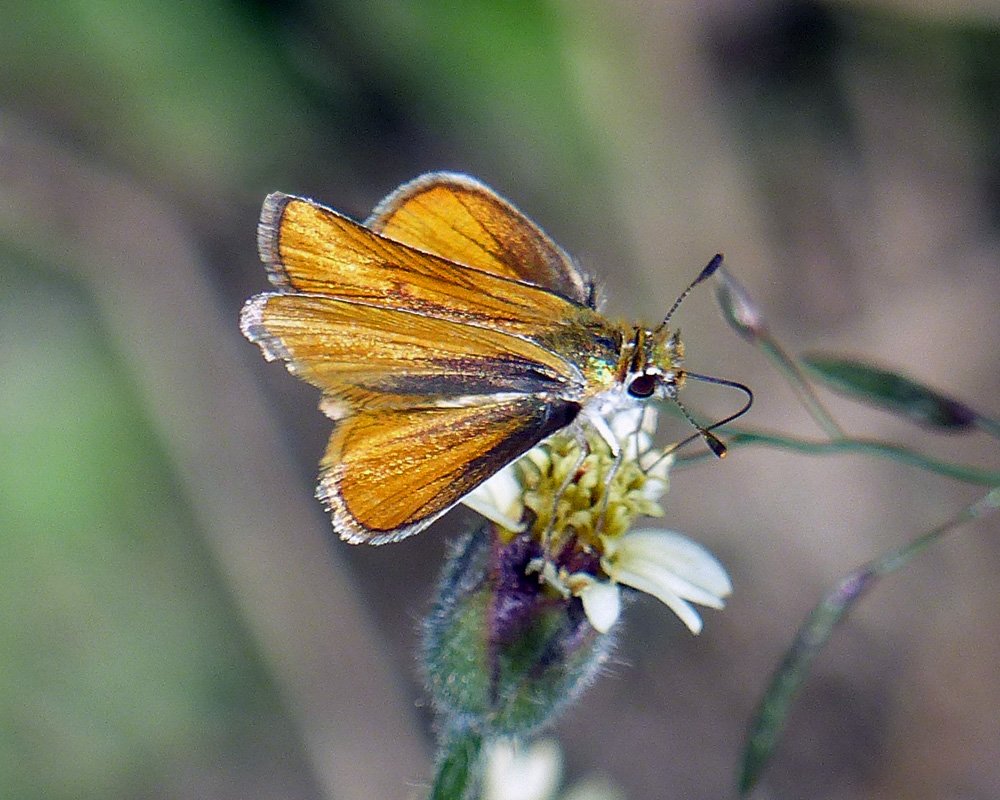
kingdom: Animalia
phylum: Arthropoda
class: Insecta
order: Lepidoptera
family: Hesperiidae
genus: Copaeodes
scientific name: Copaeodes minima
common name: Southern Skipperling
